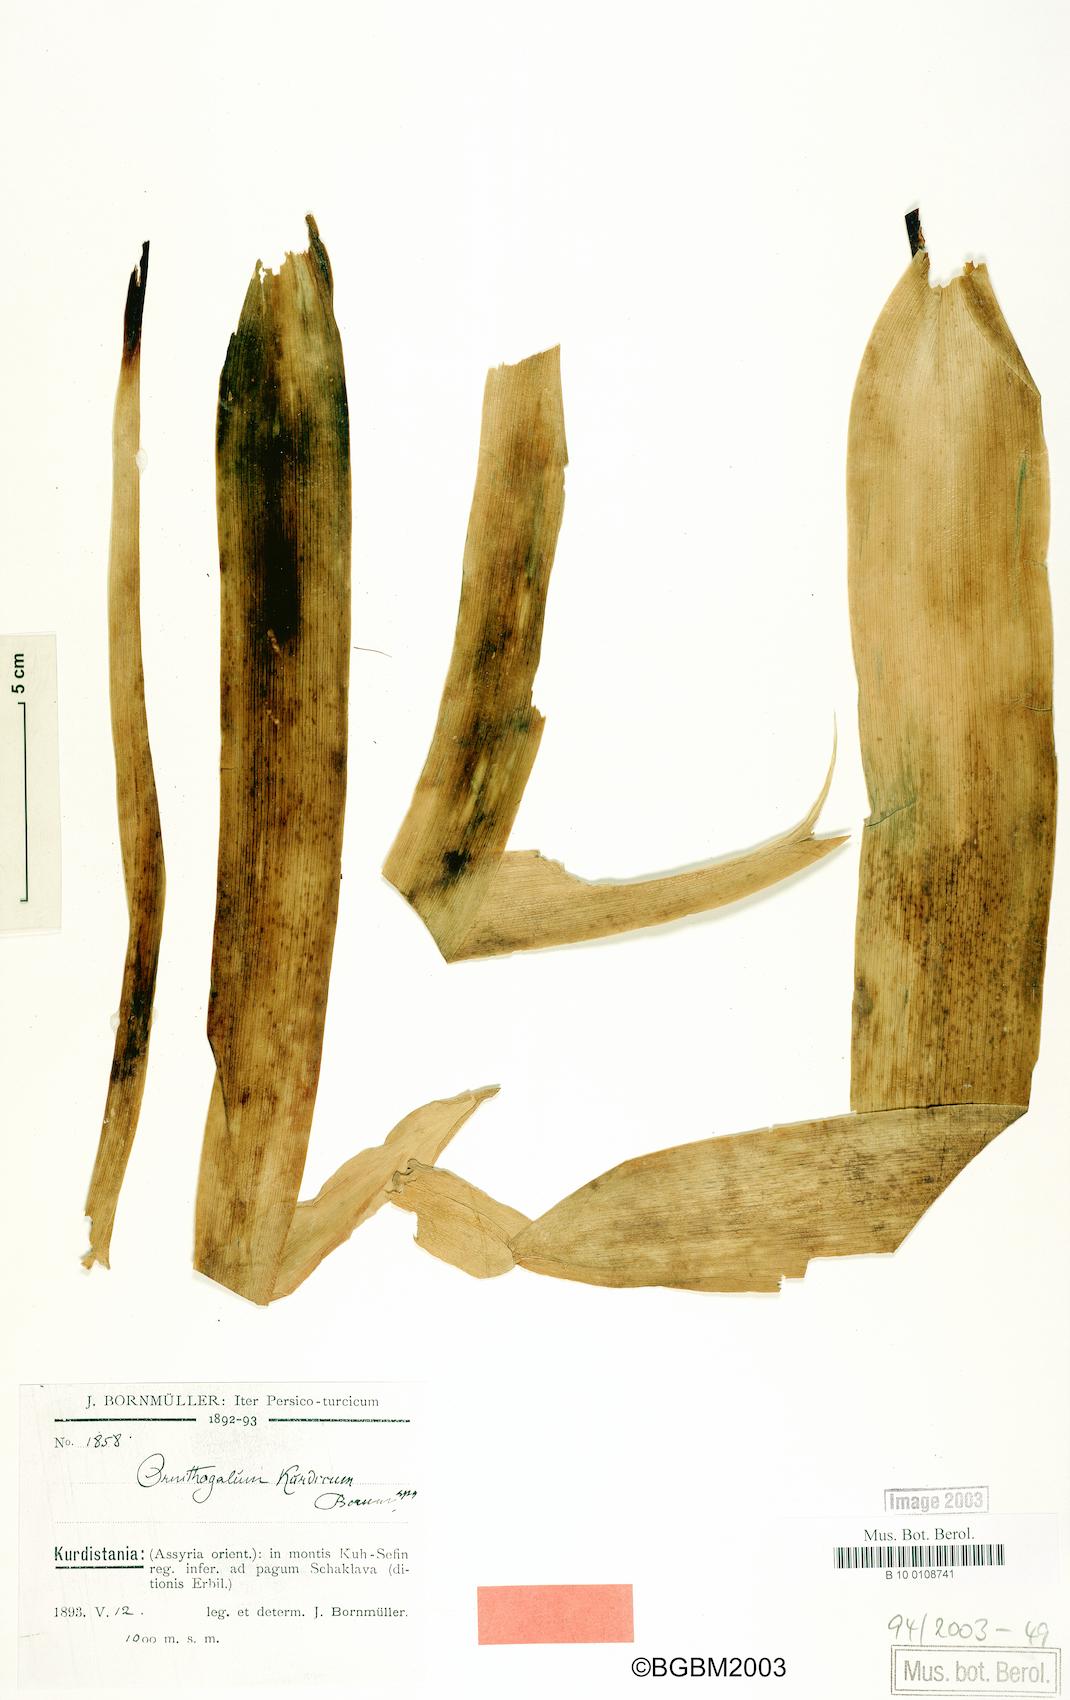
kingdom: Plantae
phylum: Tracheophyta
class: Liliopsida
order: Asparagales
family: Asparagaceae
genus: Ornithogalum
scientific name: Ornithogalum kurdicum
